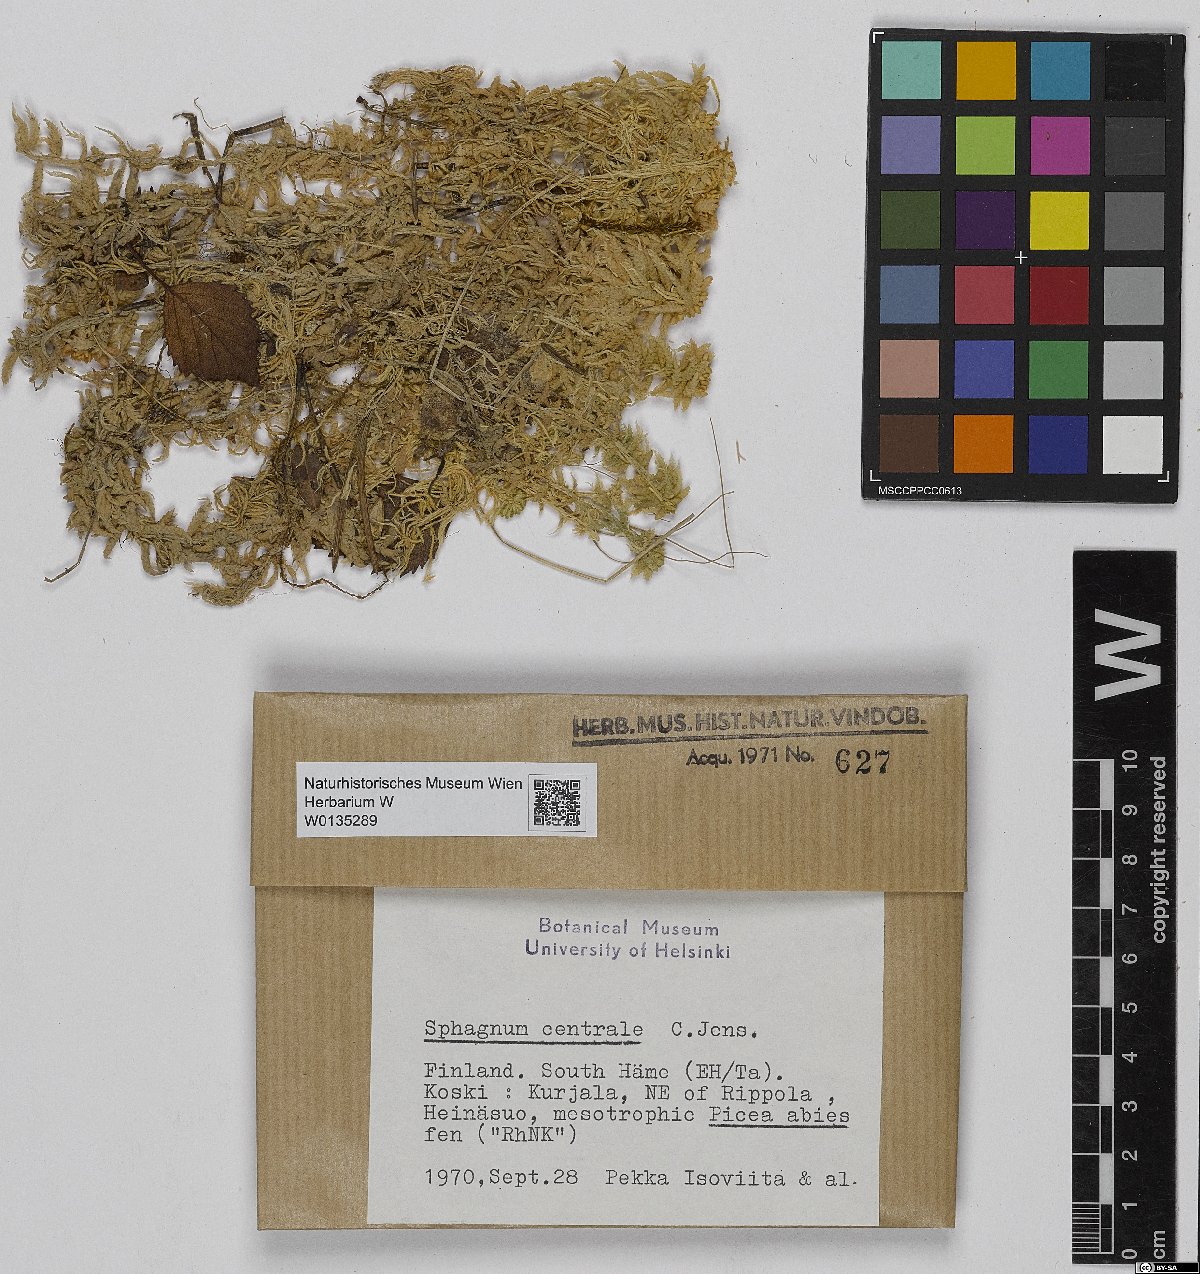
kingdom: Plantae
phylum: Bryophyta
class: Sphagnopsida
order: Sphagnales
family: Sphagnaceae
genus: Sphagnum
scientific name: Sphagnum centrale
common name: Central peat moss
